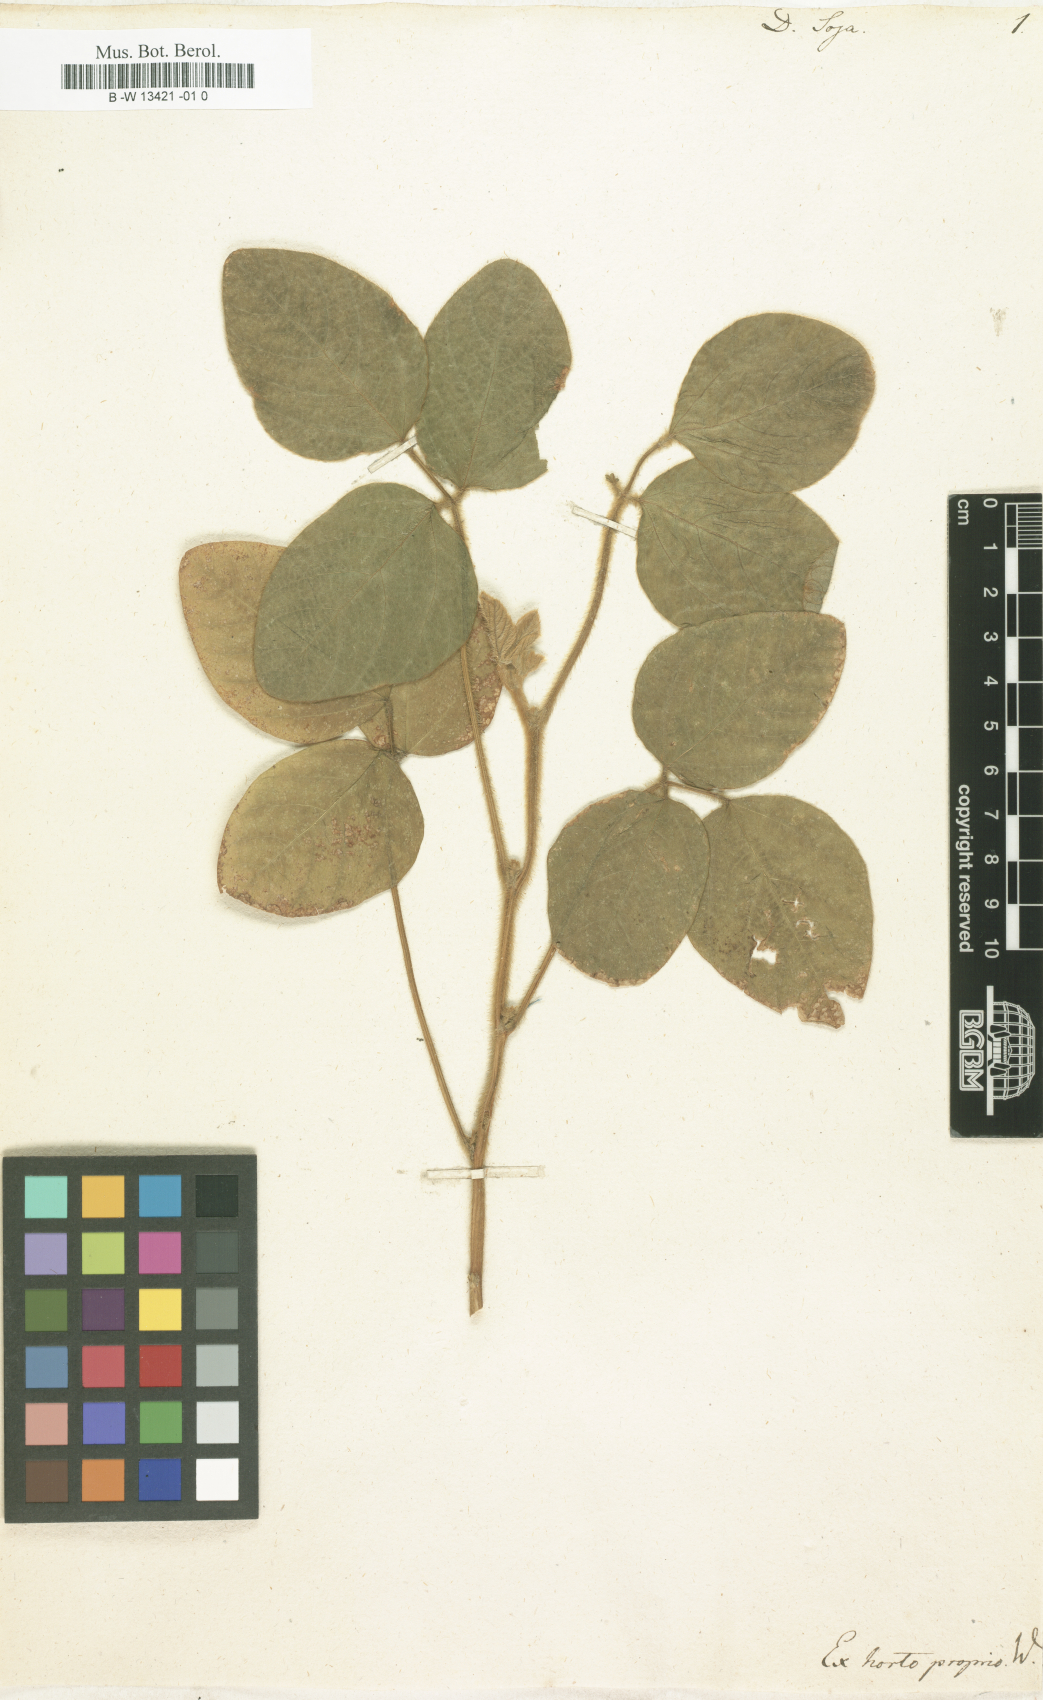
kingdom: Plantae
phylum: Tracheophyta
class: Magnoliopsida
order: Fabales
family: Fabaceae
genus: Glycine
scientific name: Glycine max
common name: Soya-bean
